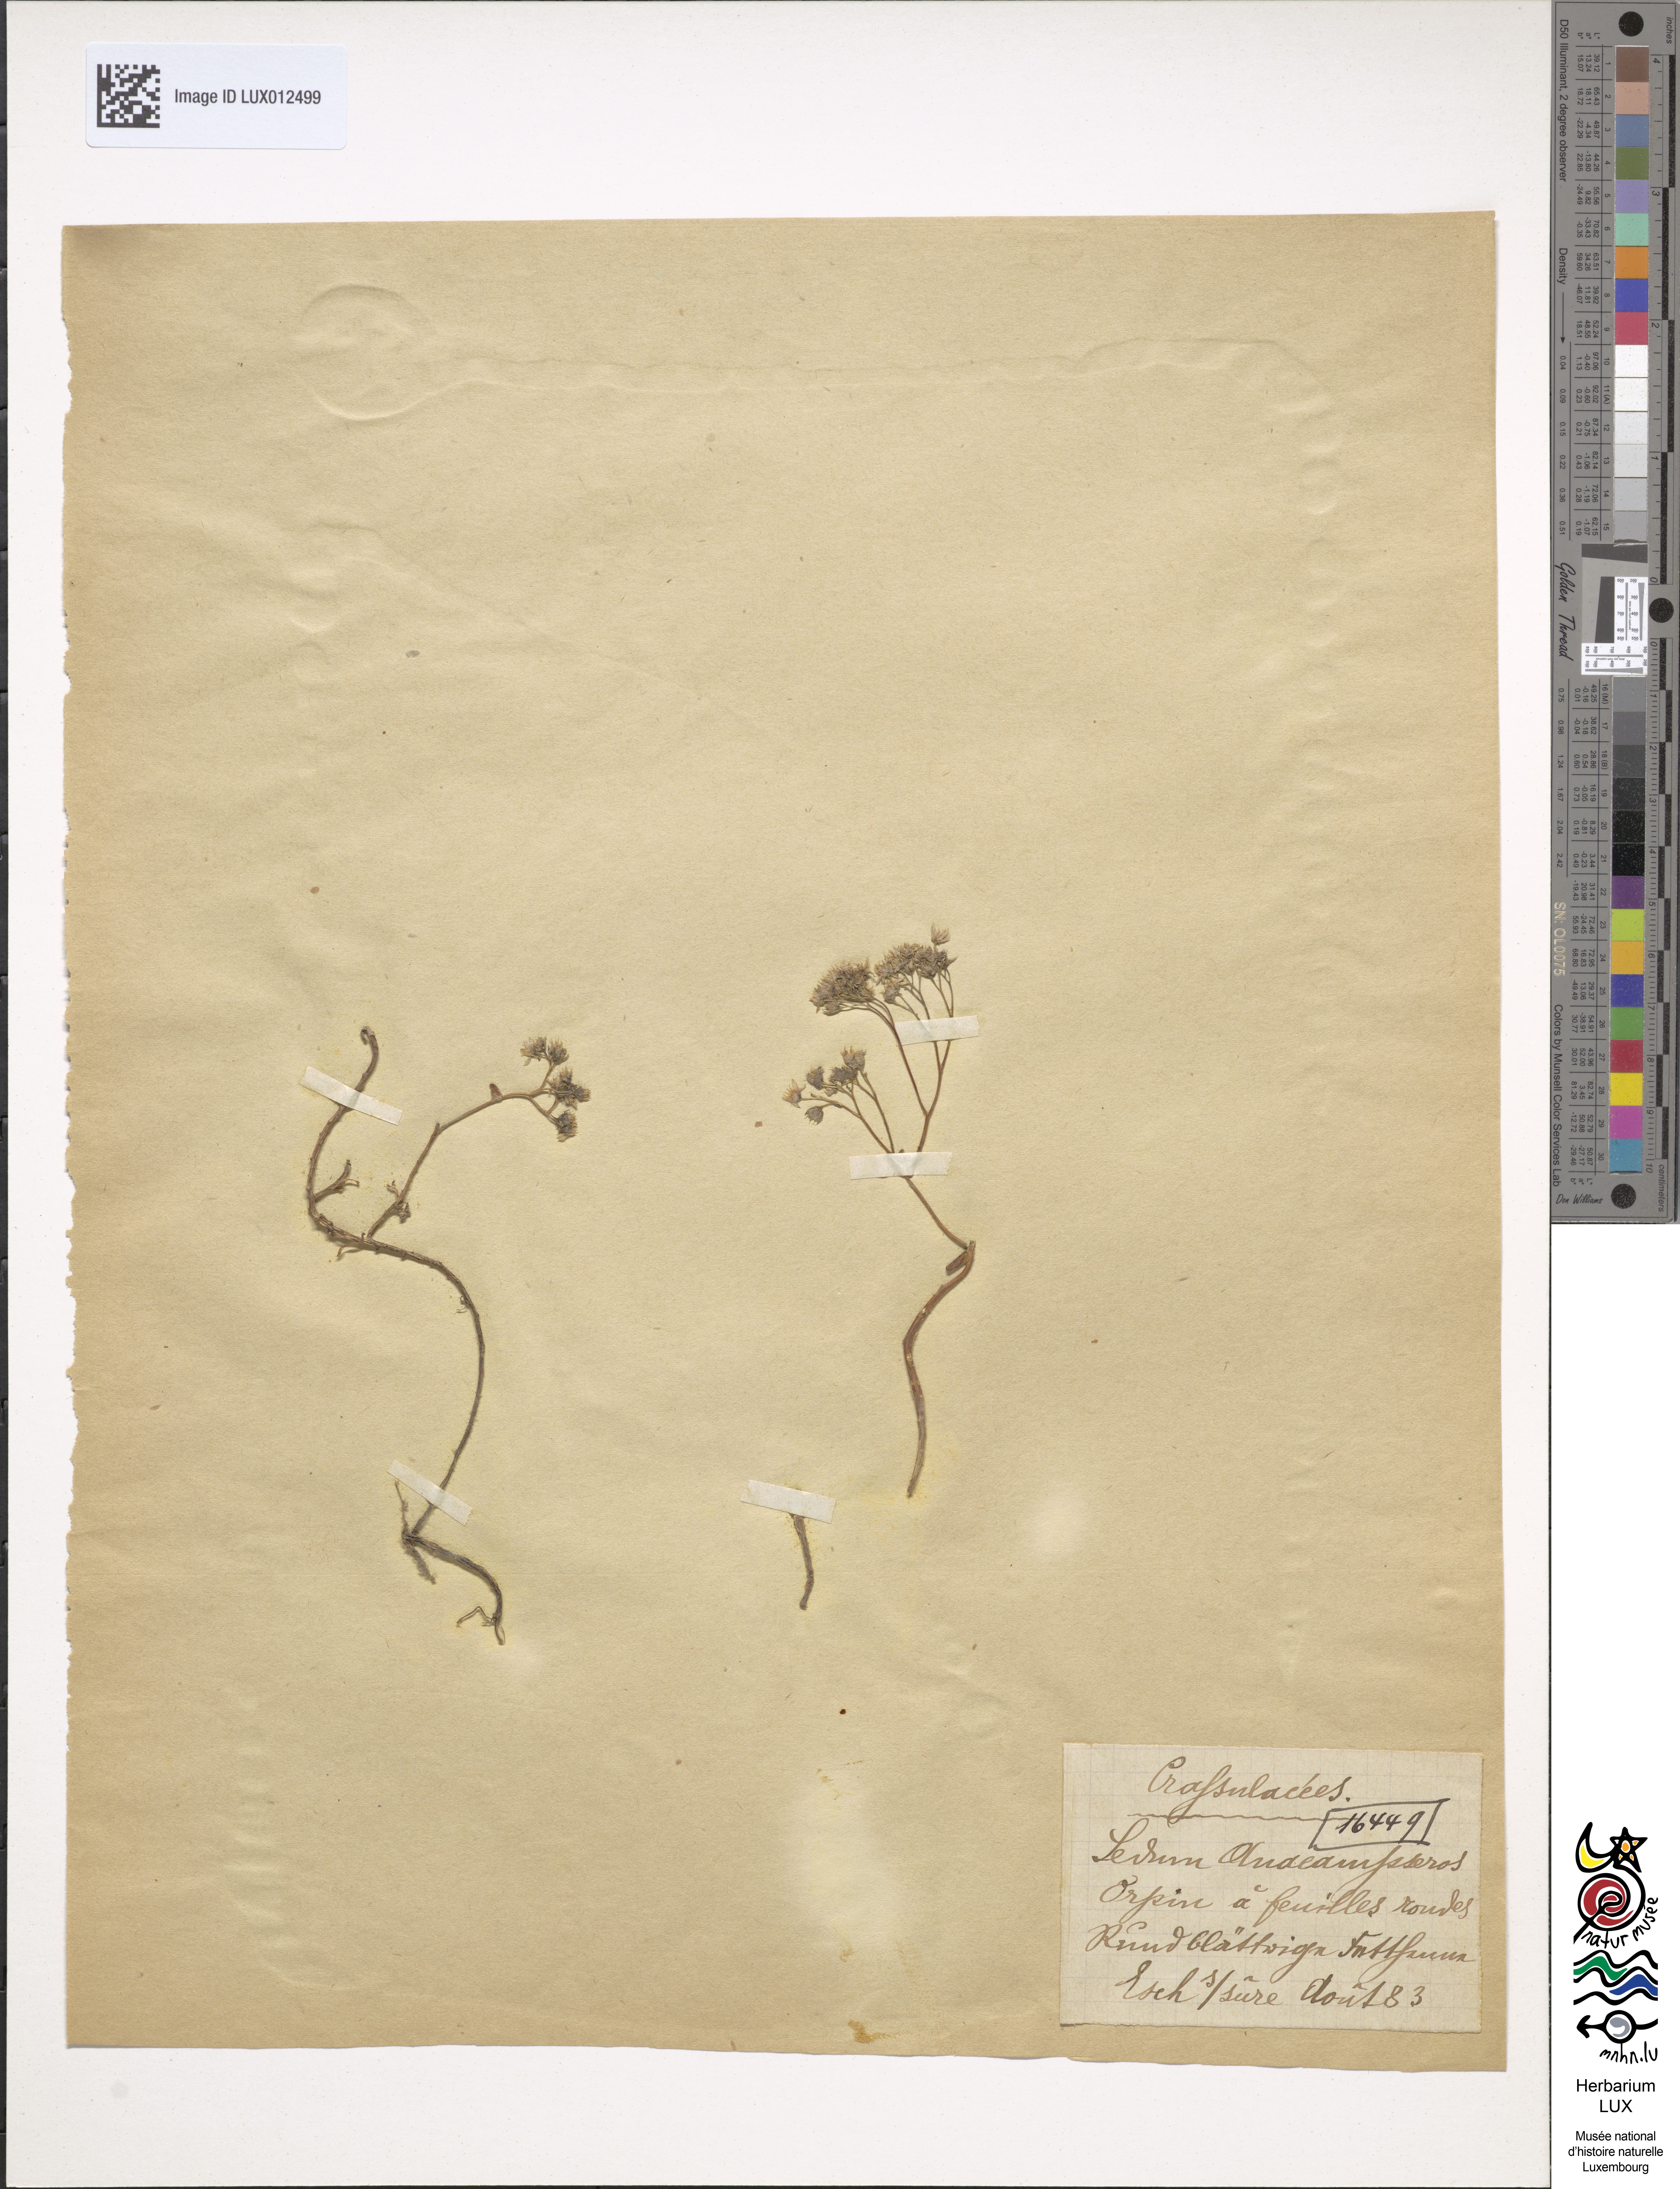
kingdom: Plantae
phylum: Tracheophyta
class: Magnoliopsida
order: Saxifragales
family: Crassulaceae
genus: Hylotelephium
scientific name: Hylotelephium anacampseros
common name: Love-restorer
